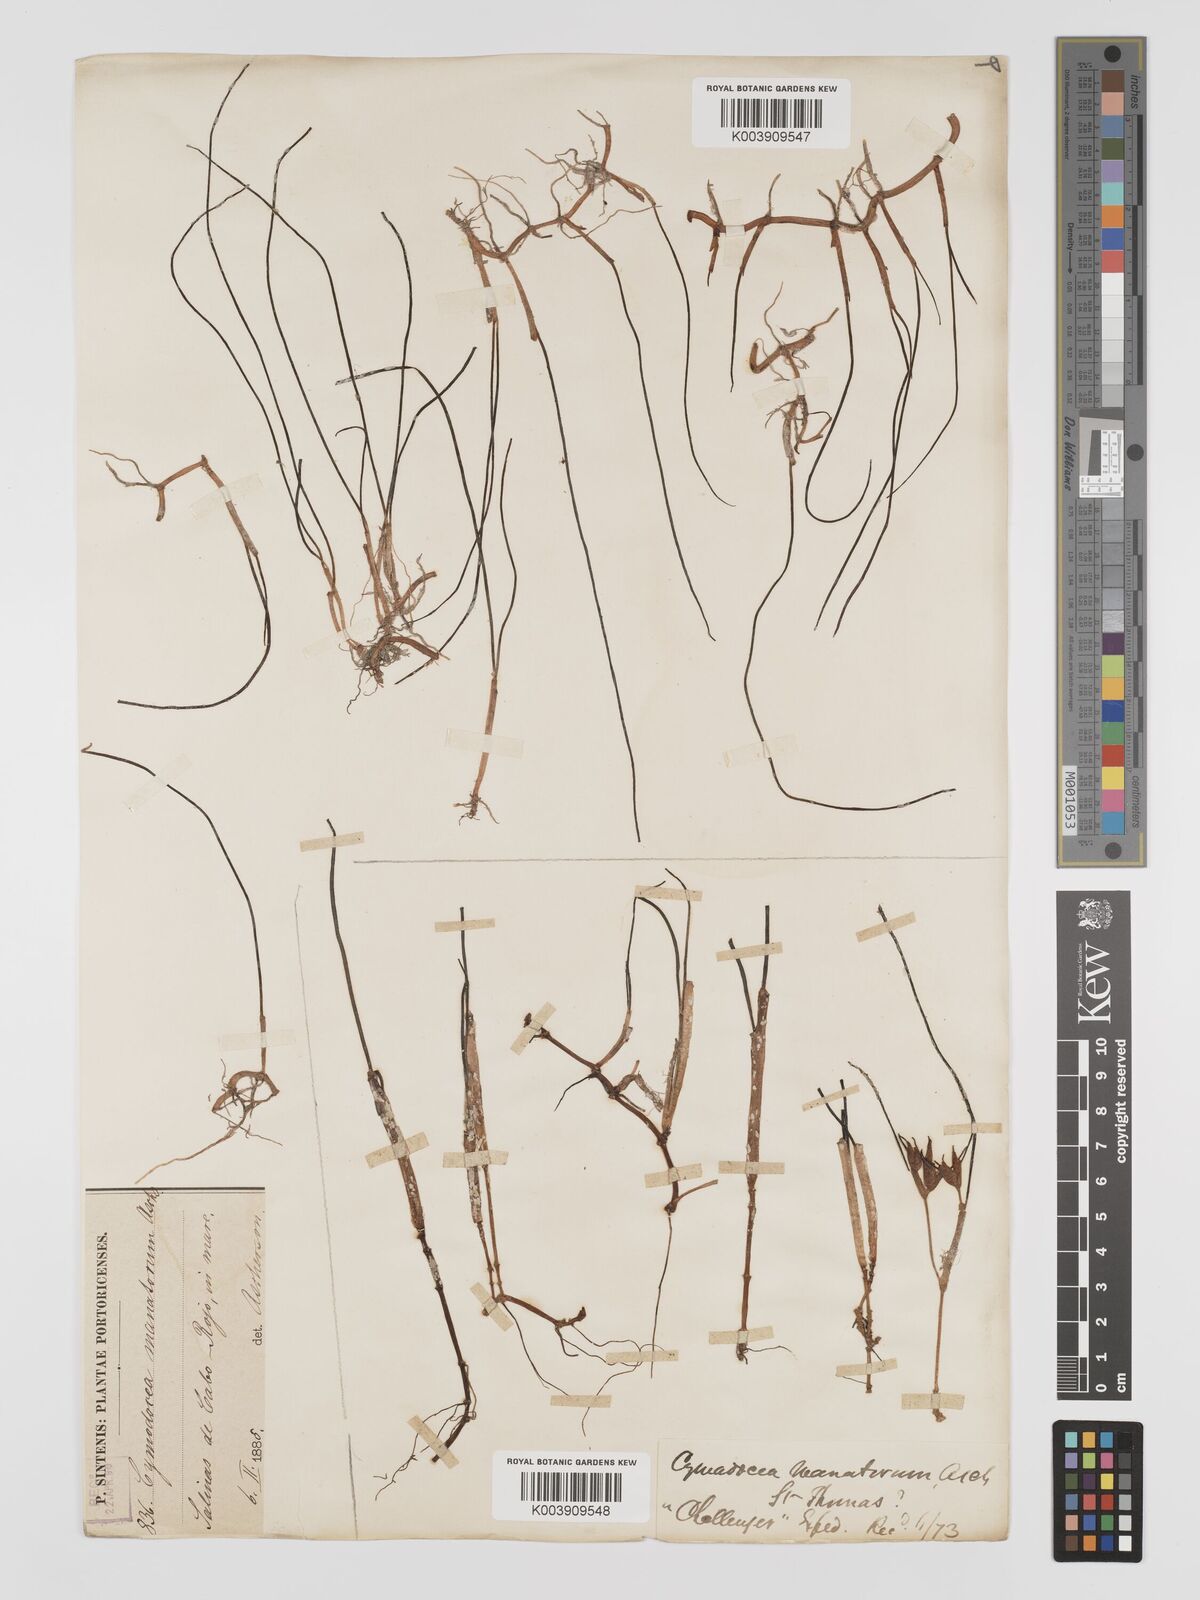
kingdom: Plantae
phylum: Tracheophyta
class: Liliopsida
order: Alismatales
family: Cymodoceaceae
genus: Syringodium
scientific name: Syringodium
